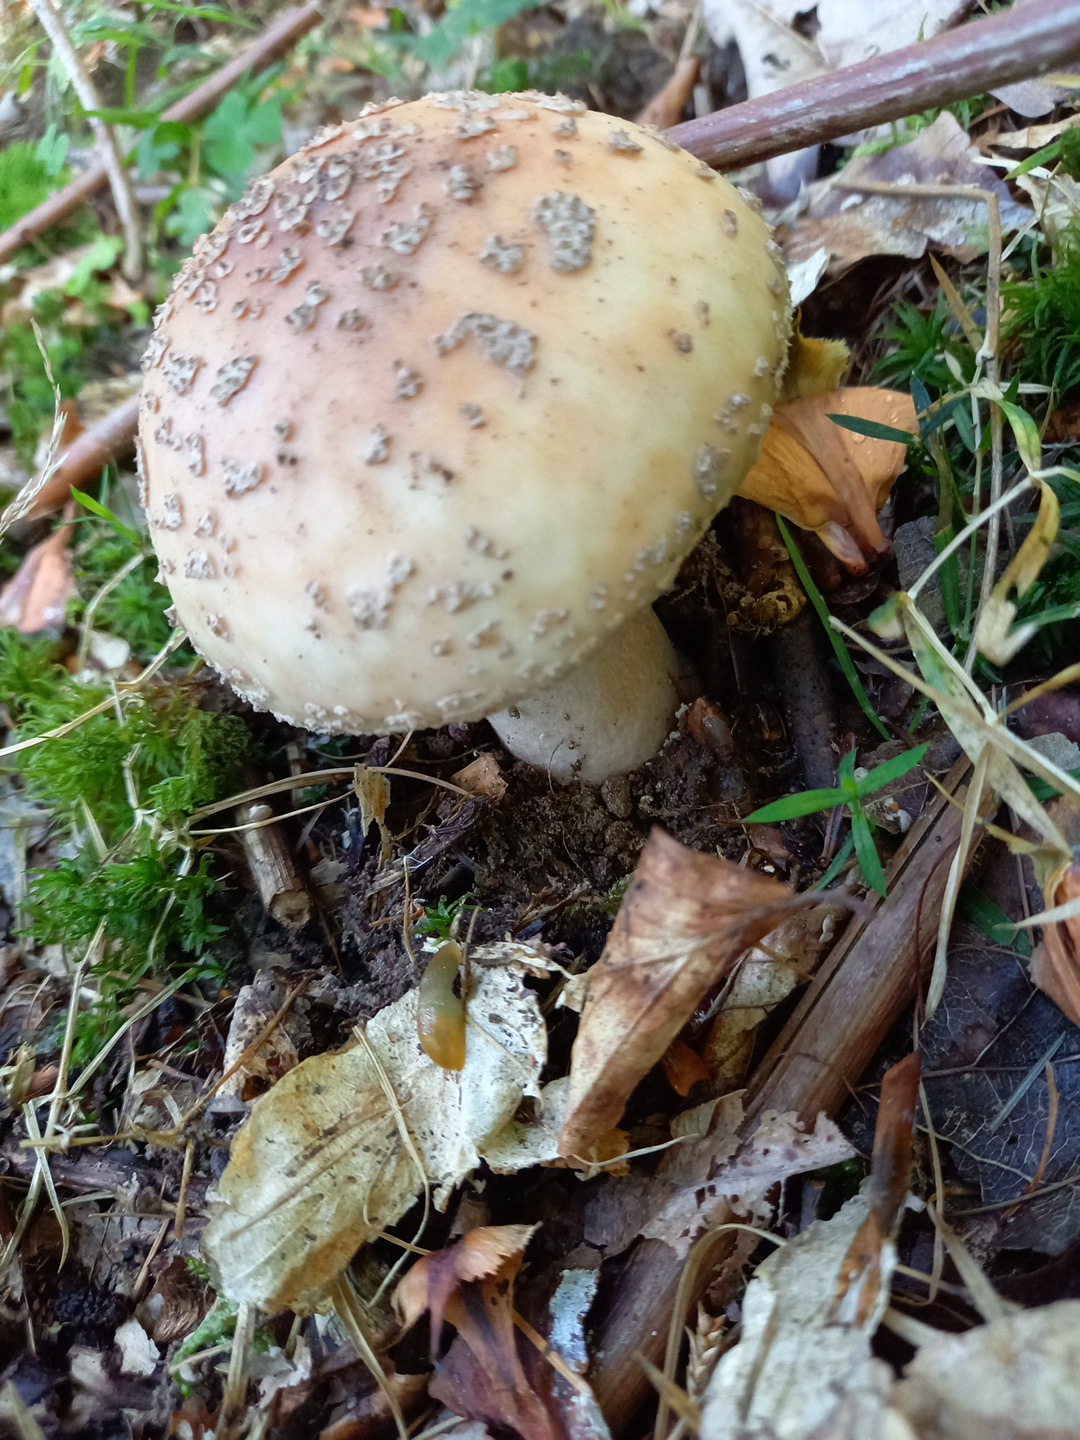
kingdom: Fungi
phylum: Basidiomycota
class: Agaricomycetes
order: Agaricales
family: Amanitaceae
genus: Amanita
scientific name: Amanita rubescens
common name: rødmende fluesvamp
